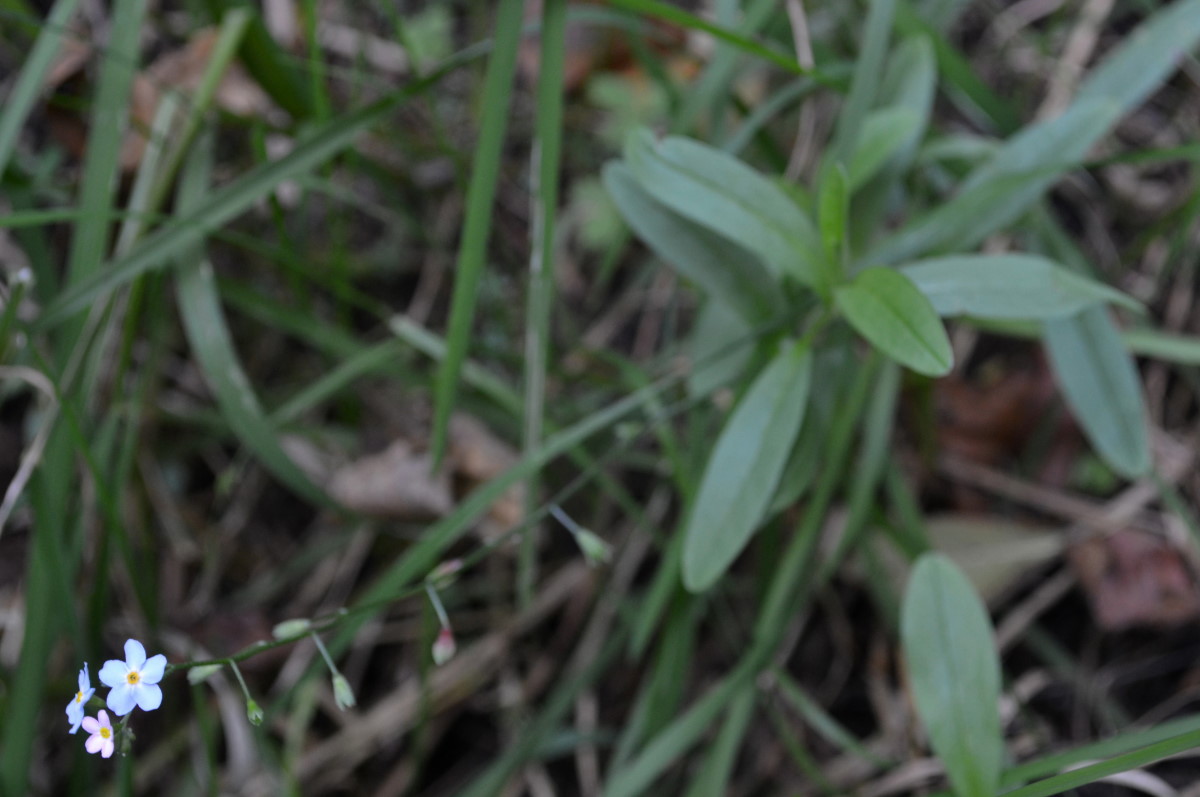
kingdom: Plantae
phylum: Tracheophyta
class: Magnoliopsida
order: Boraginales
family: Boraginaceae
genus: Myosotis
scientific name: Myosotis scorpioides
